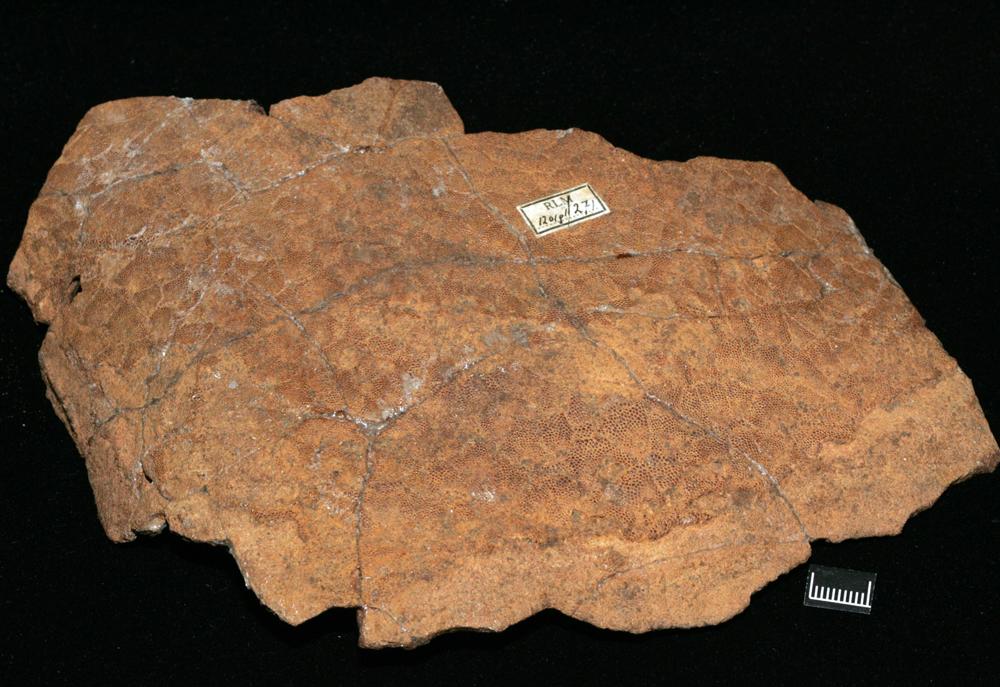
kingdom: Animalia
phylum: Chordata
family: Drepanaspididae
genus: Psammosteus
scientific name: Psammosteus
